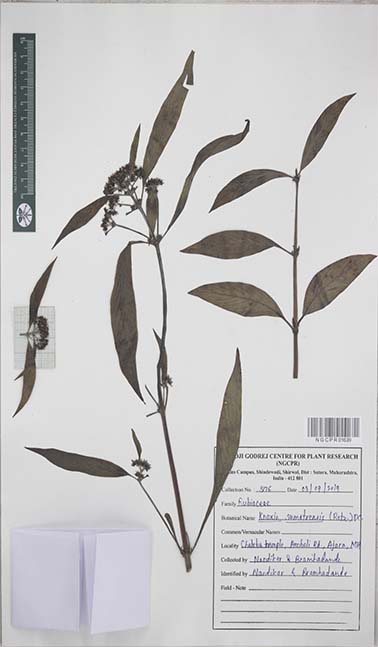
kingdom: Plantae
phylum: Tracheophyta
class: Magnoliopsida
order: Gentianales
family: Rubiaceae
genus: Knoxia
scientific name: Knoxia sumatrensis
